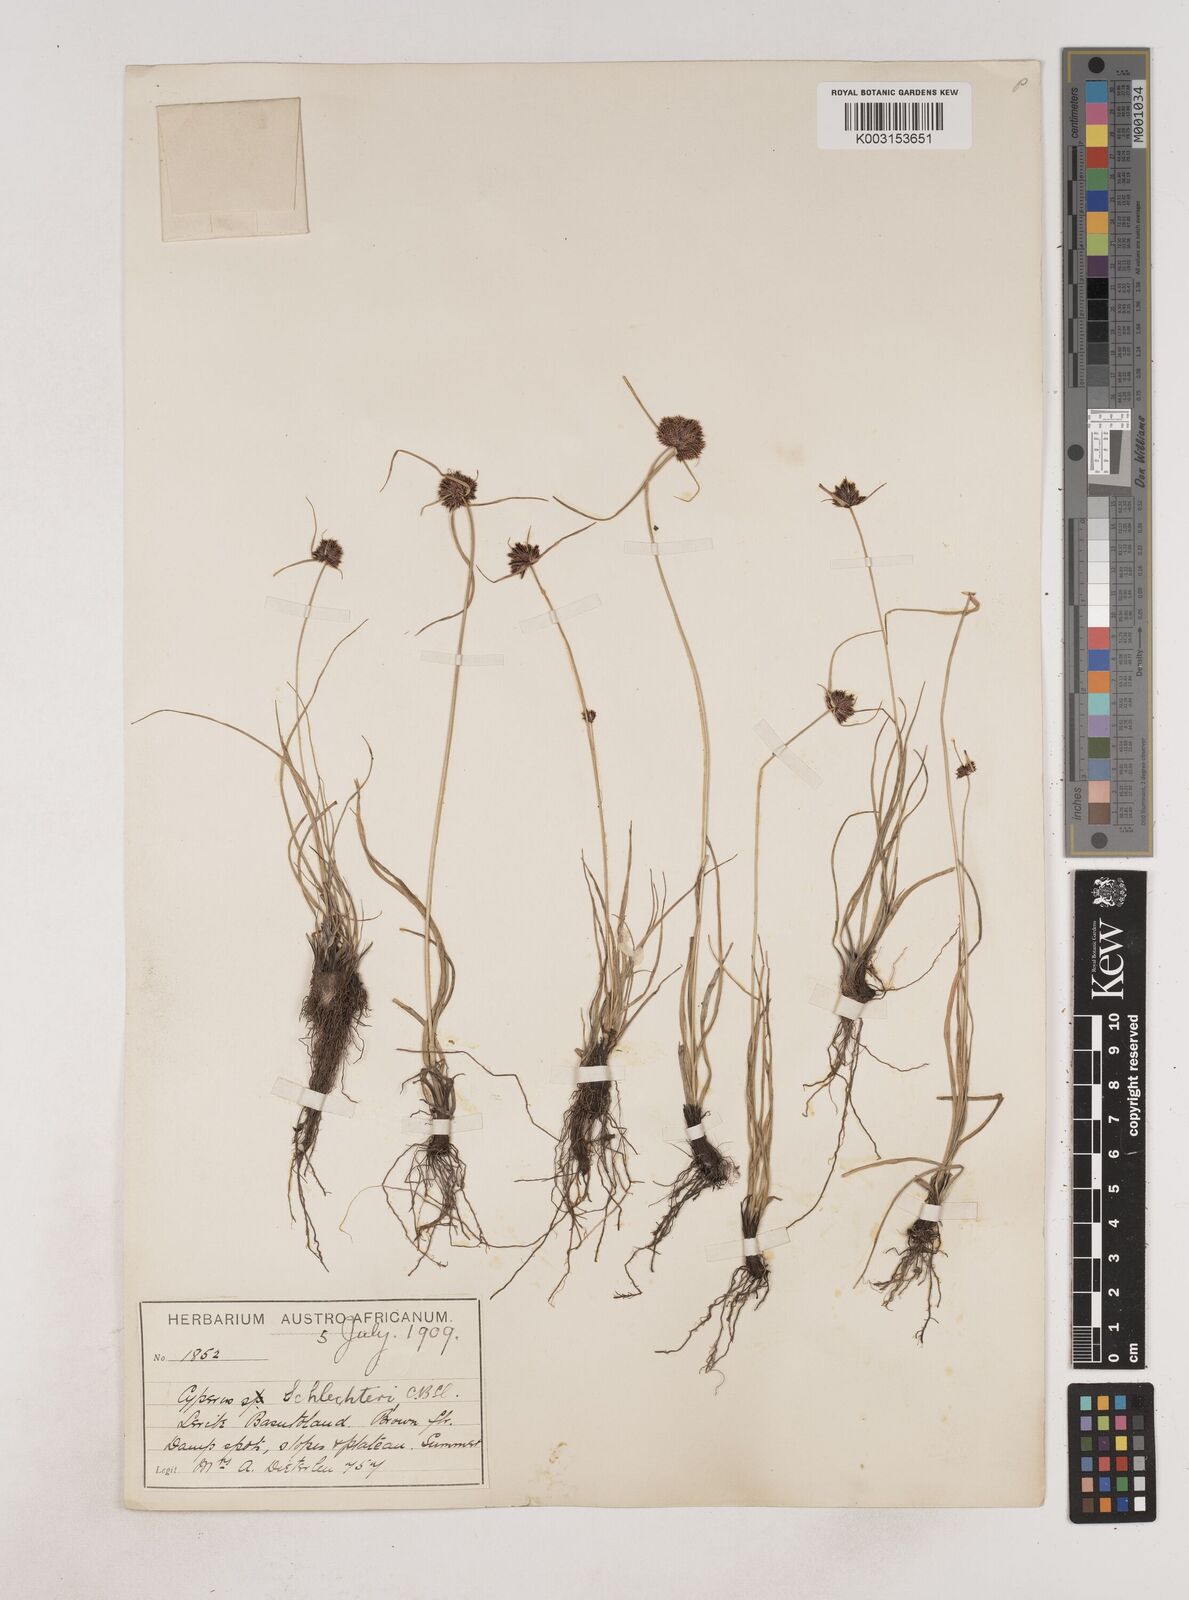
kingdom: Plantae
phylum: Tracheophyta
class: Liliopsida
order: Poales
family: Cyperaceae
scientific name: Cyperaceae
